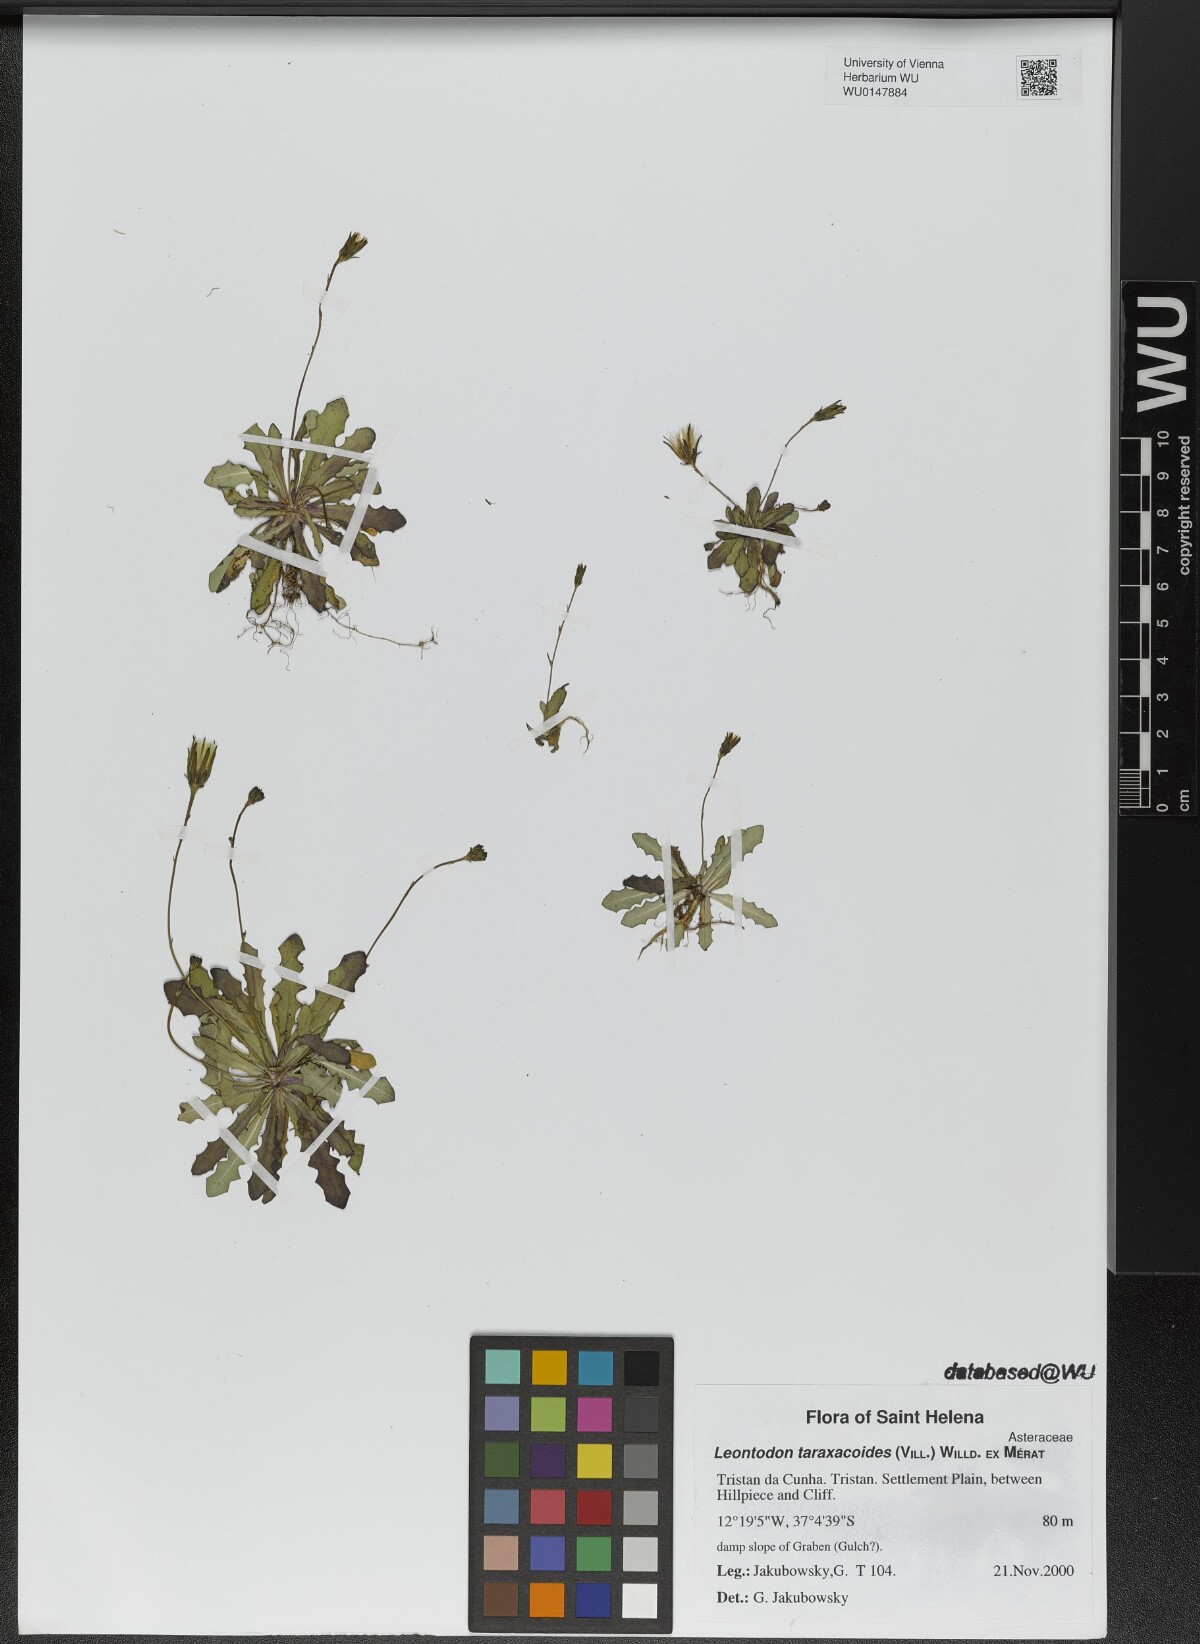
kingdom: Plantae
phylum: Tracheophyta
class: Magnoliopsida
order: Asterales
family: Asteraceae
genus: Thrincia
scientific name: Thrincia saxatilis
